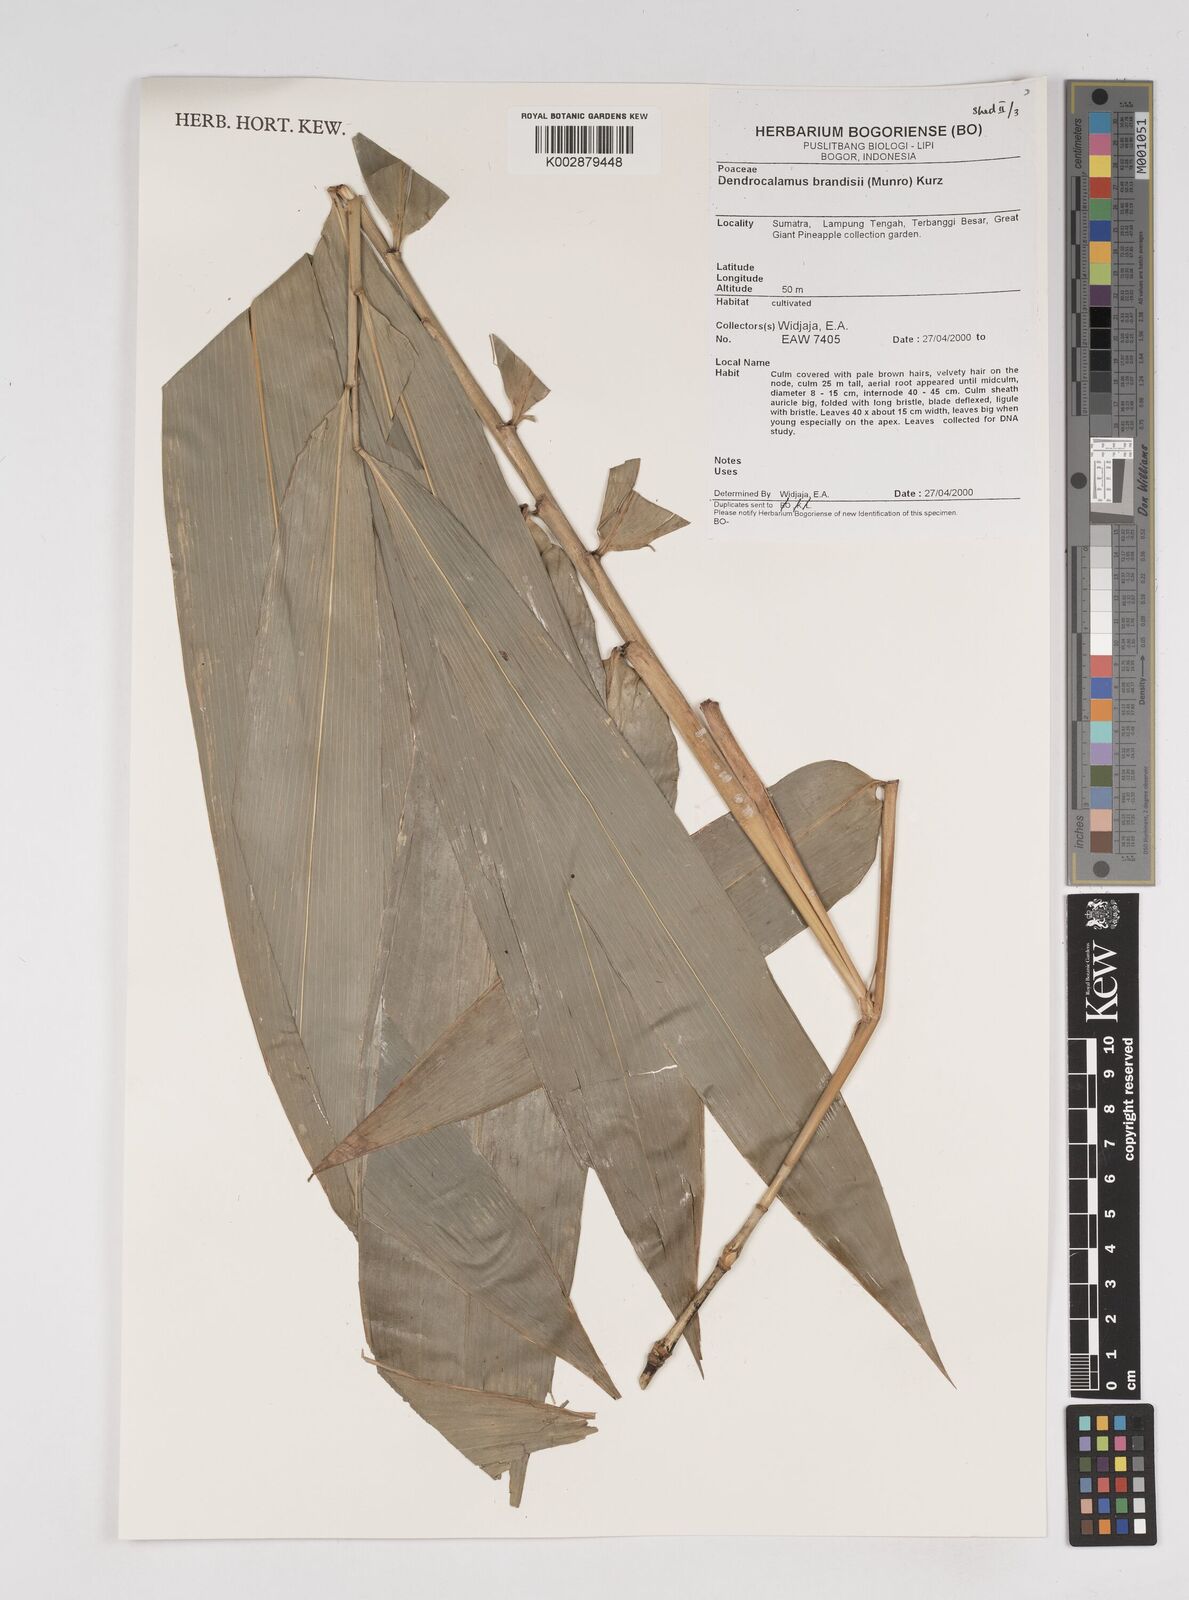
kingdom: Plantae
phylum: Tracheophyta
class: Liliopsida
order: Poales
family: Poaceae
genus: Dendrocalamus
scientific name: Dendrocalamus brandisii
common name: Velvetleaf bamboo
